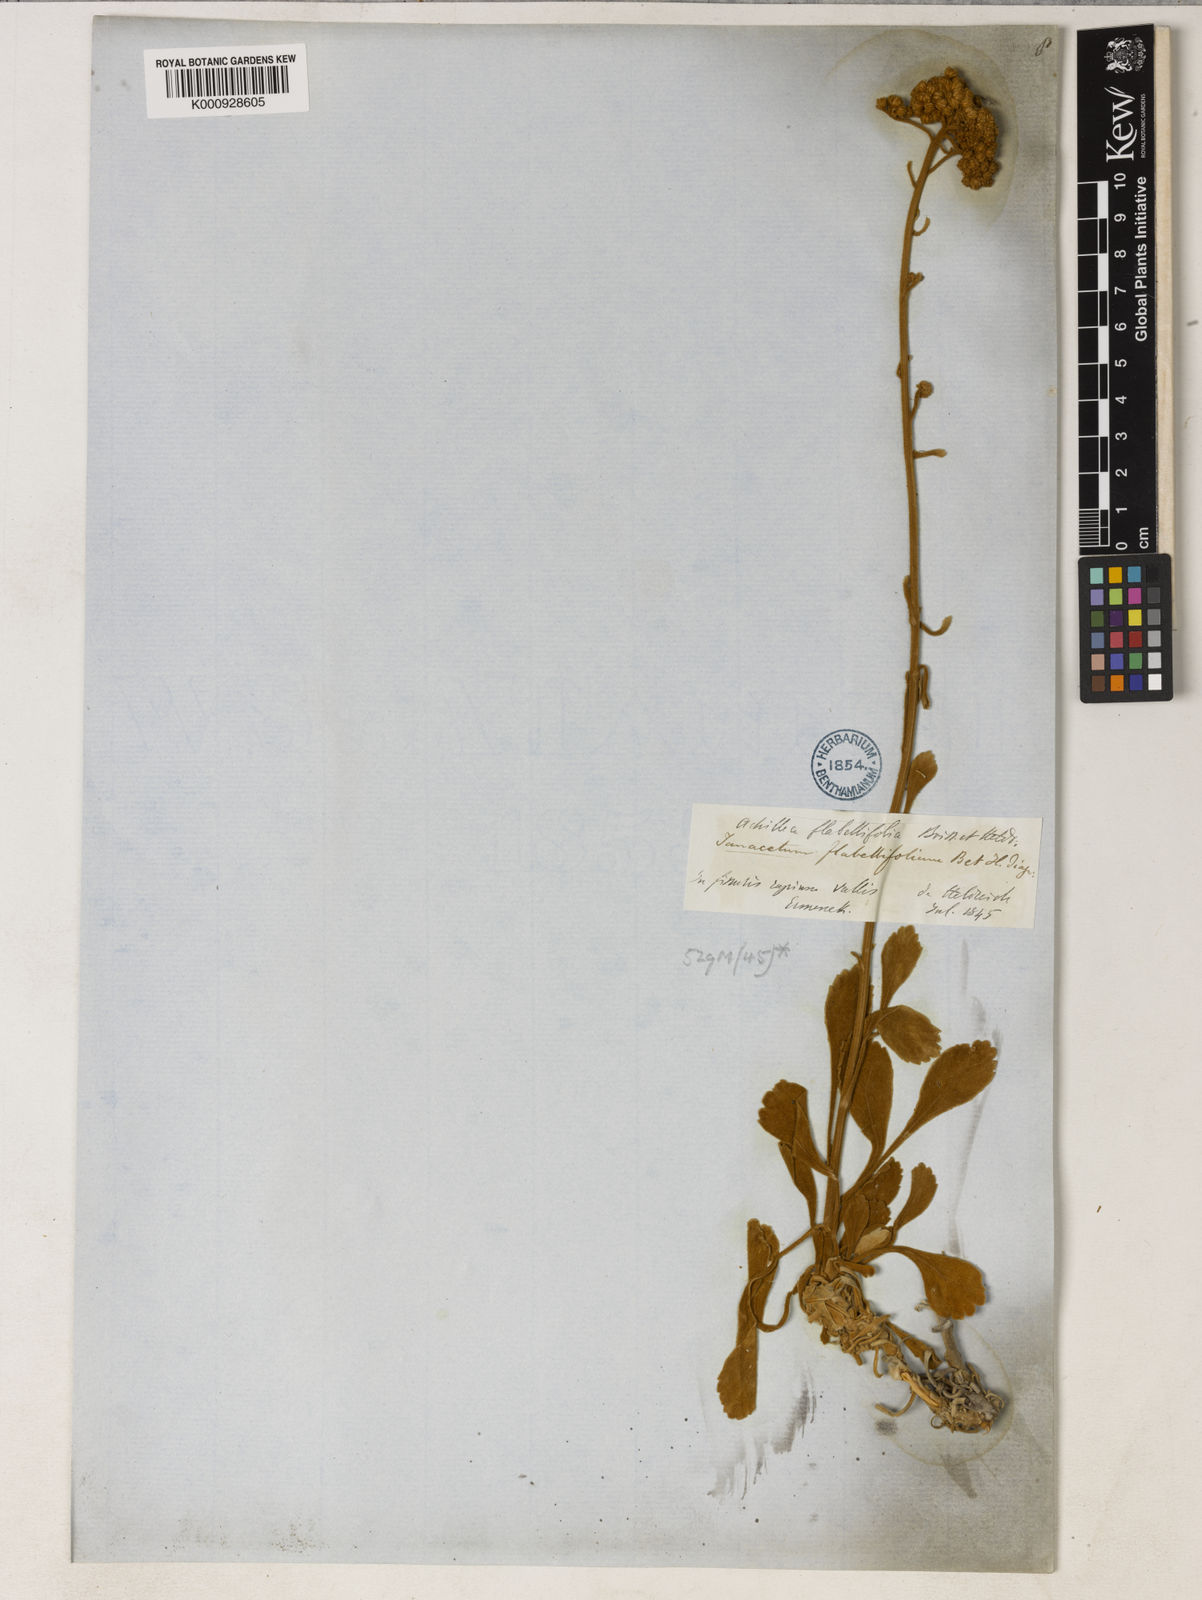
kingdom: Plantae
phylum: Tracheophyta
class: Magnoliopsida
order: Asterales
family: Asteraceae
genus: Tanacetum
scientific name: Tanacetum argenteum
